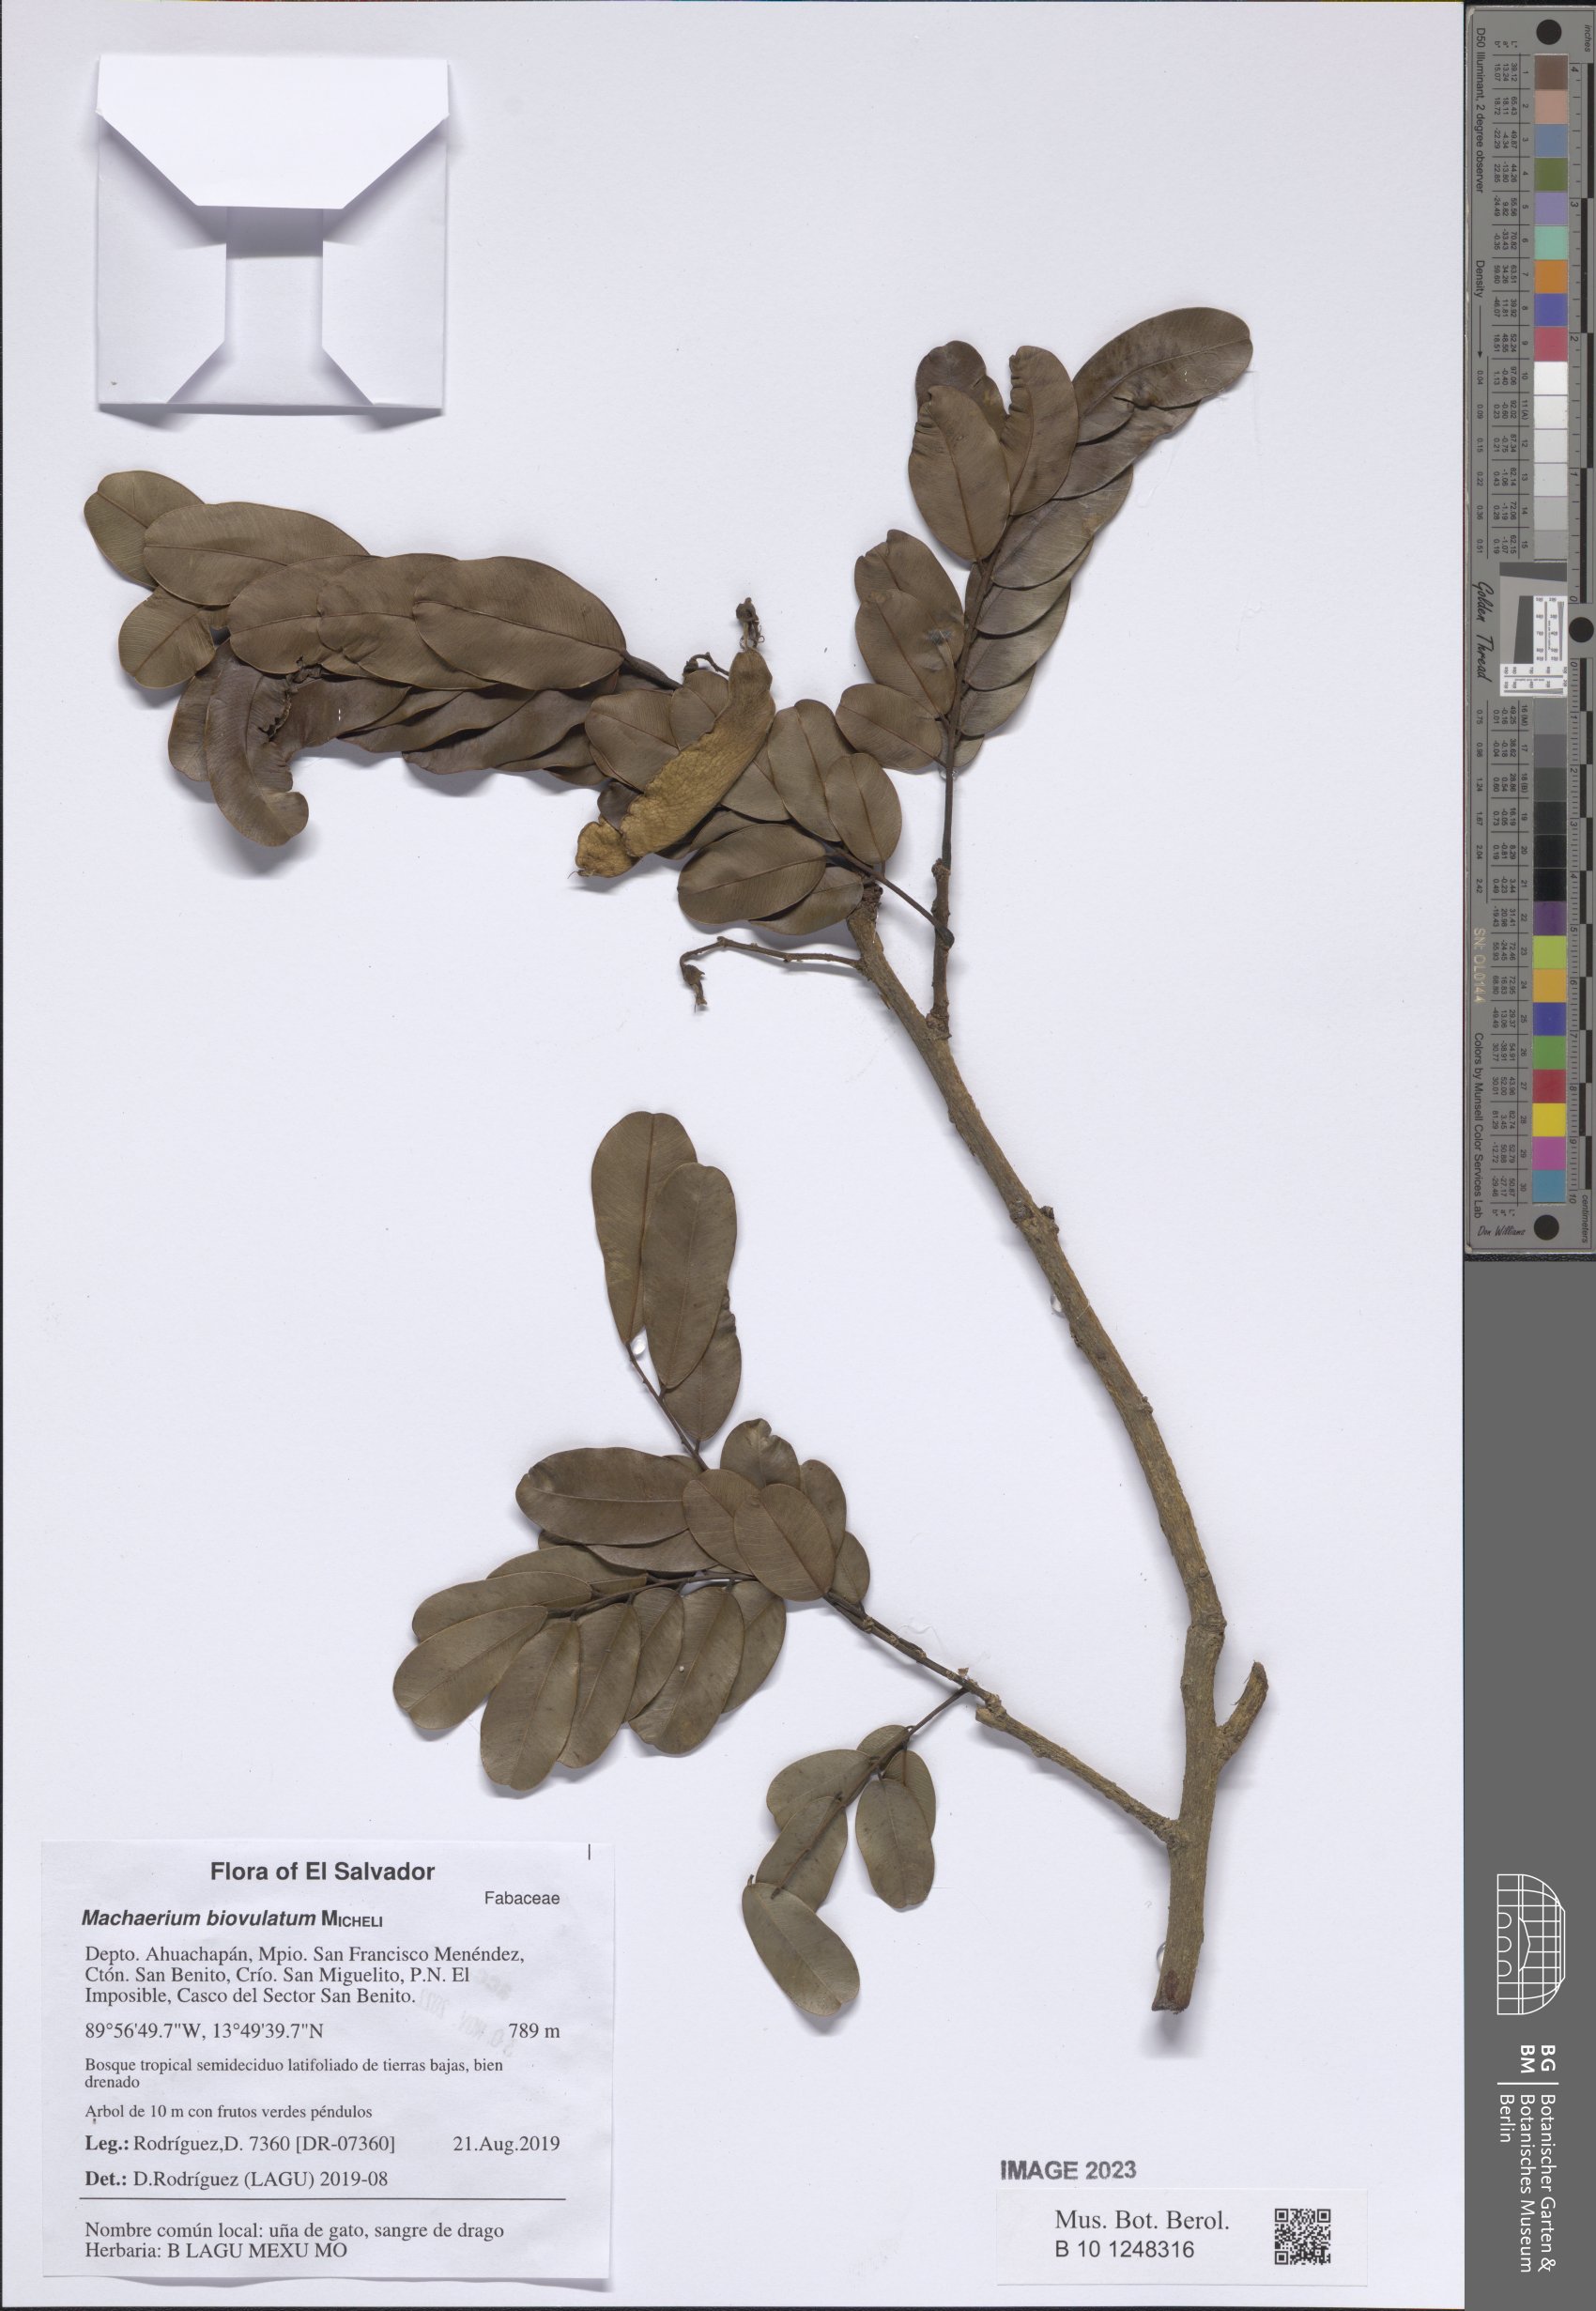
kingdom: Plantae
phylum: Tracheophyta
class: Magnoliopsida
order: Fabales
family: Fabaceae
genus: Machaerium
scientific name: Machaerium biovulatum
